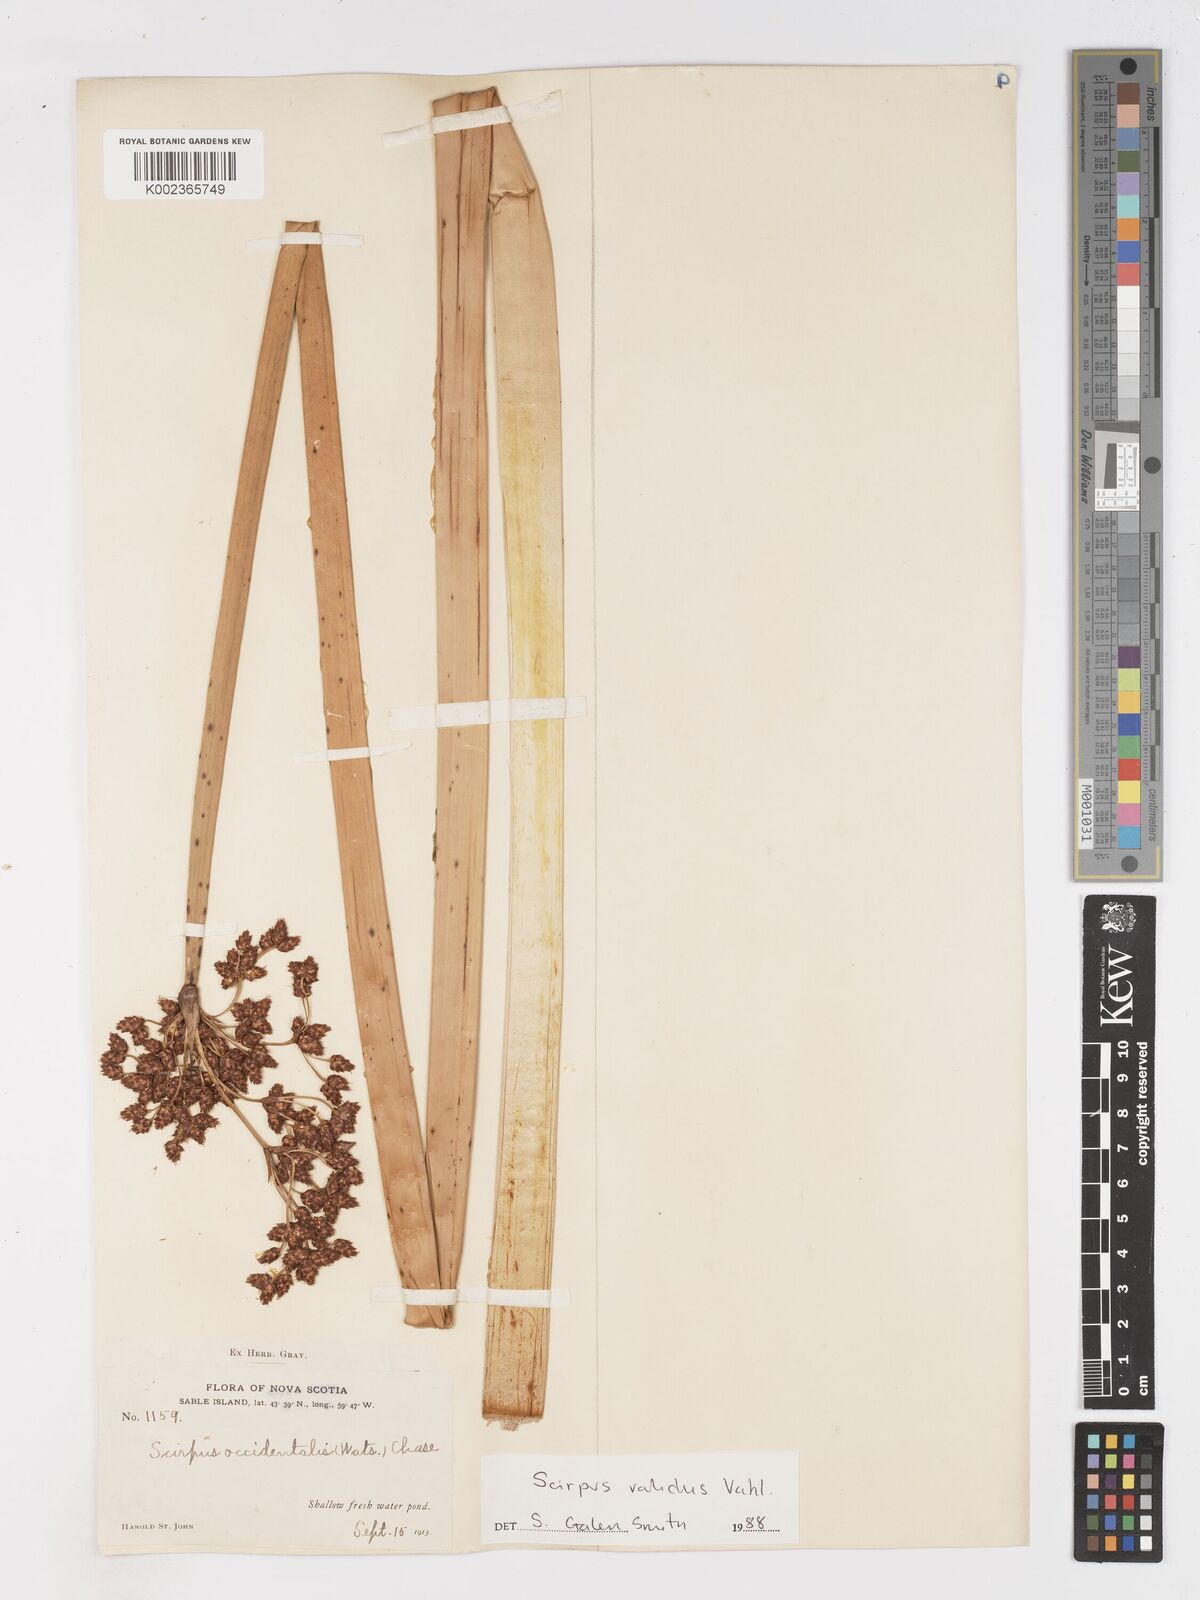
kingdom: Plantae
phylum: Tracheophyta
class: Liliopsida
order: Poales
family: Cyperaceae
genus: Schoenoplectus
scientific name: Schoenoplectus
